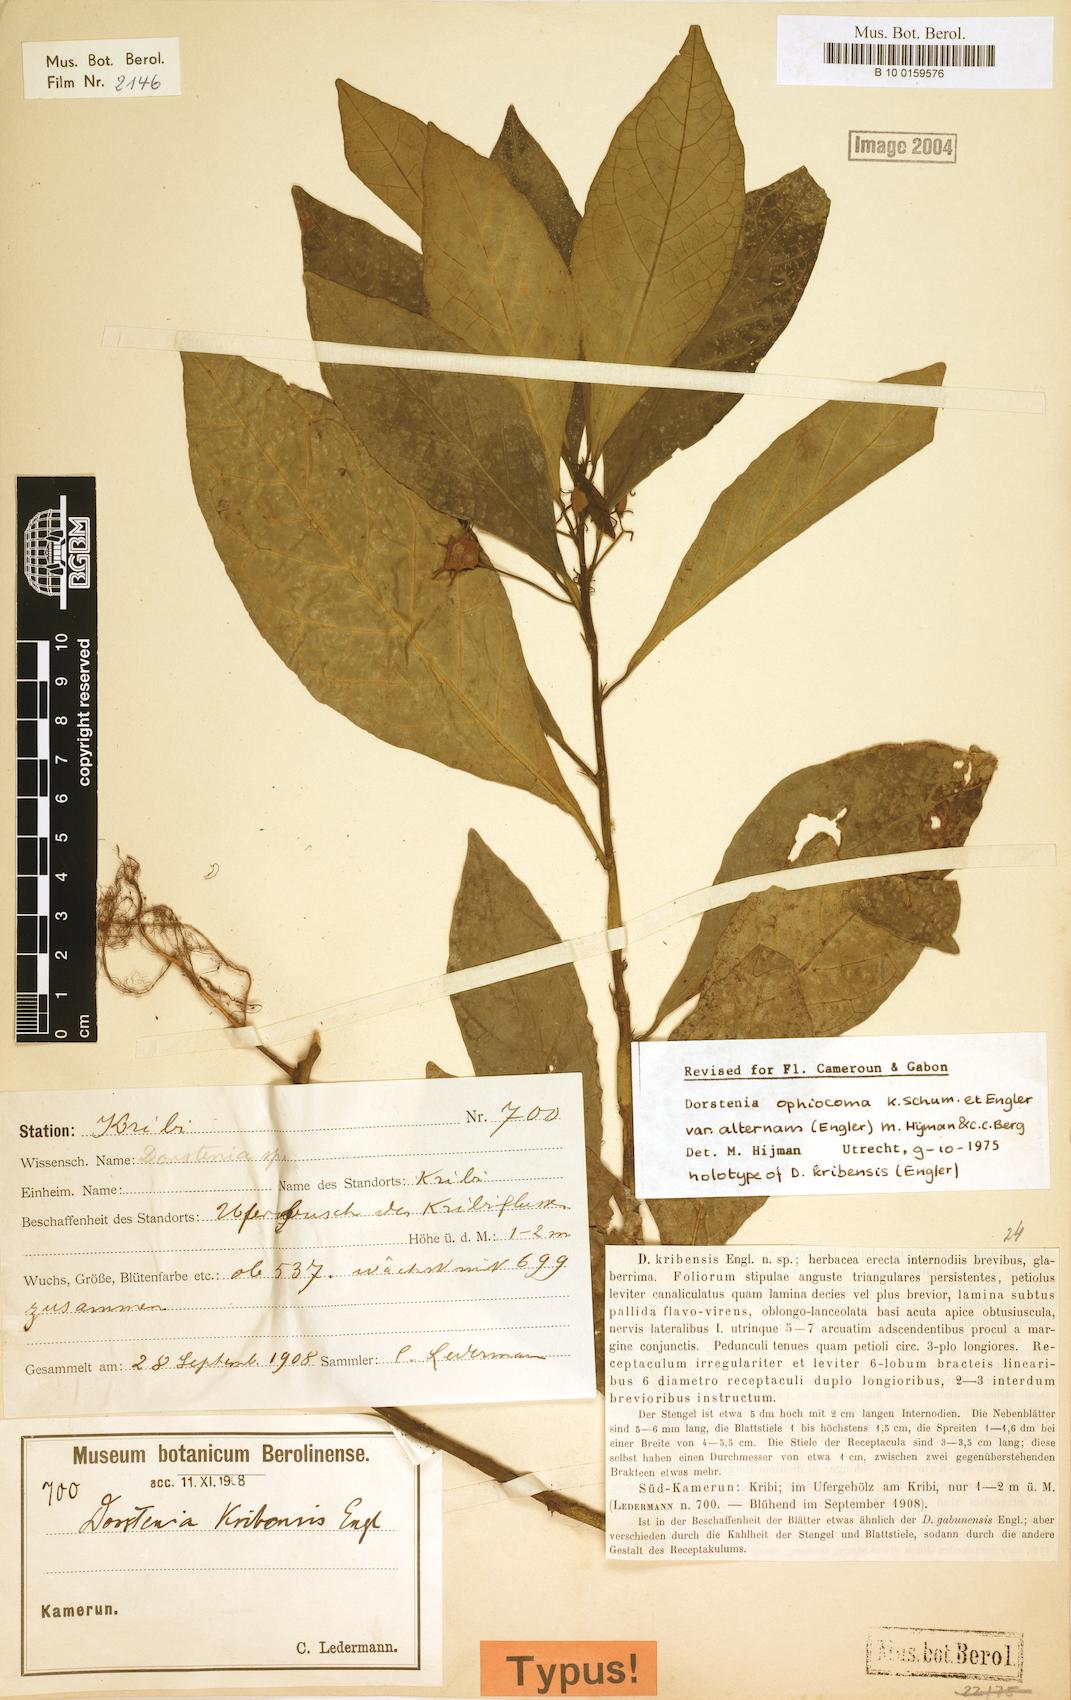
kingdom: Plantae
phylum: Tracheophyta
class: Magnoliopsida
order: Rosales
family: Moraceae
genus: Dorstenia
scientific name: Dorstenia mannii
